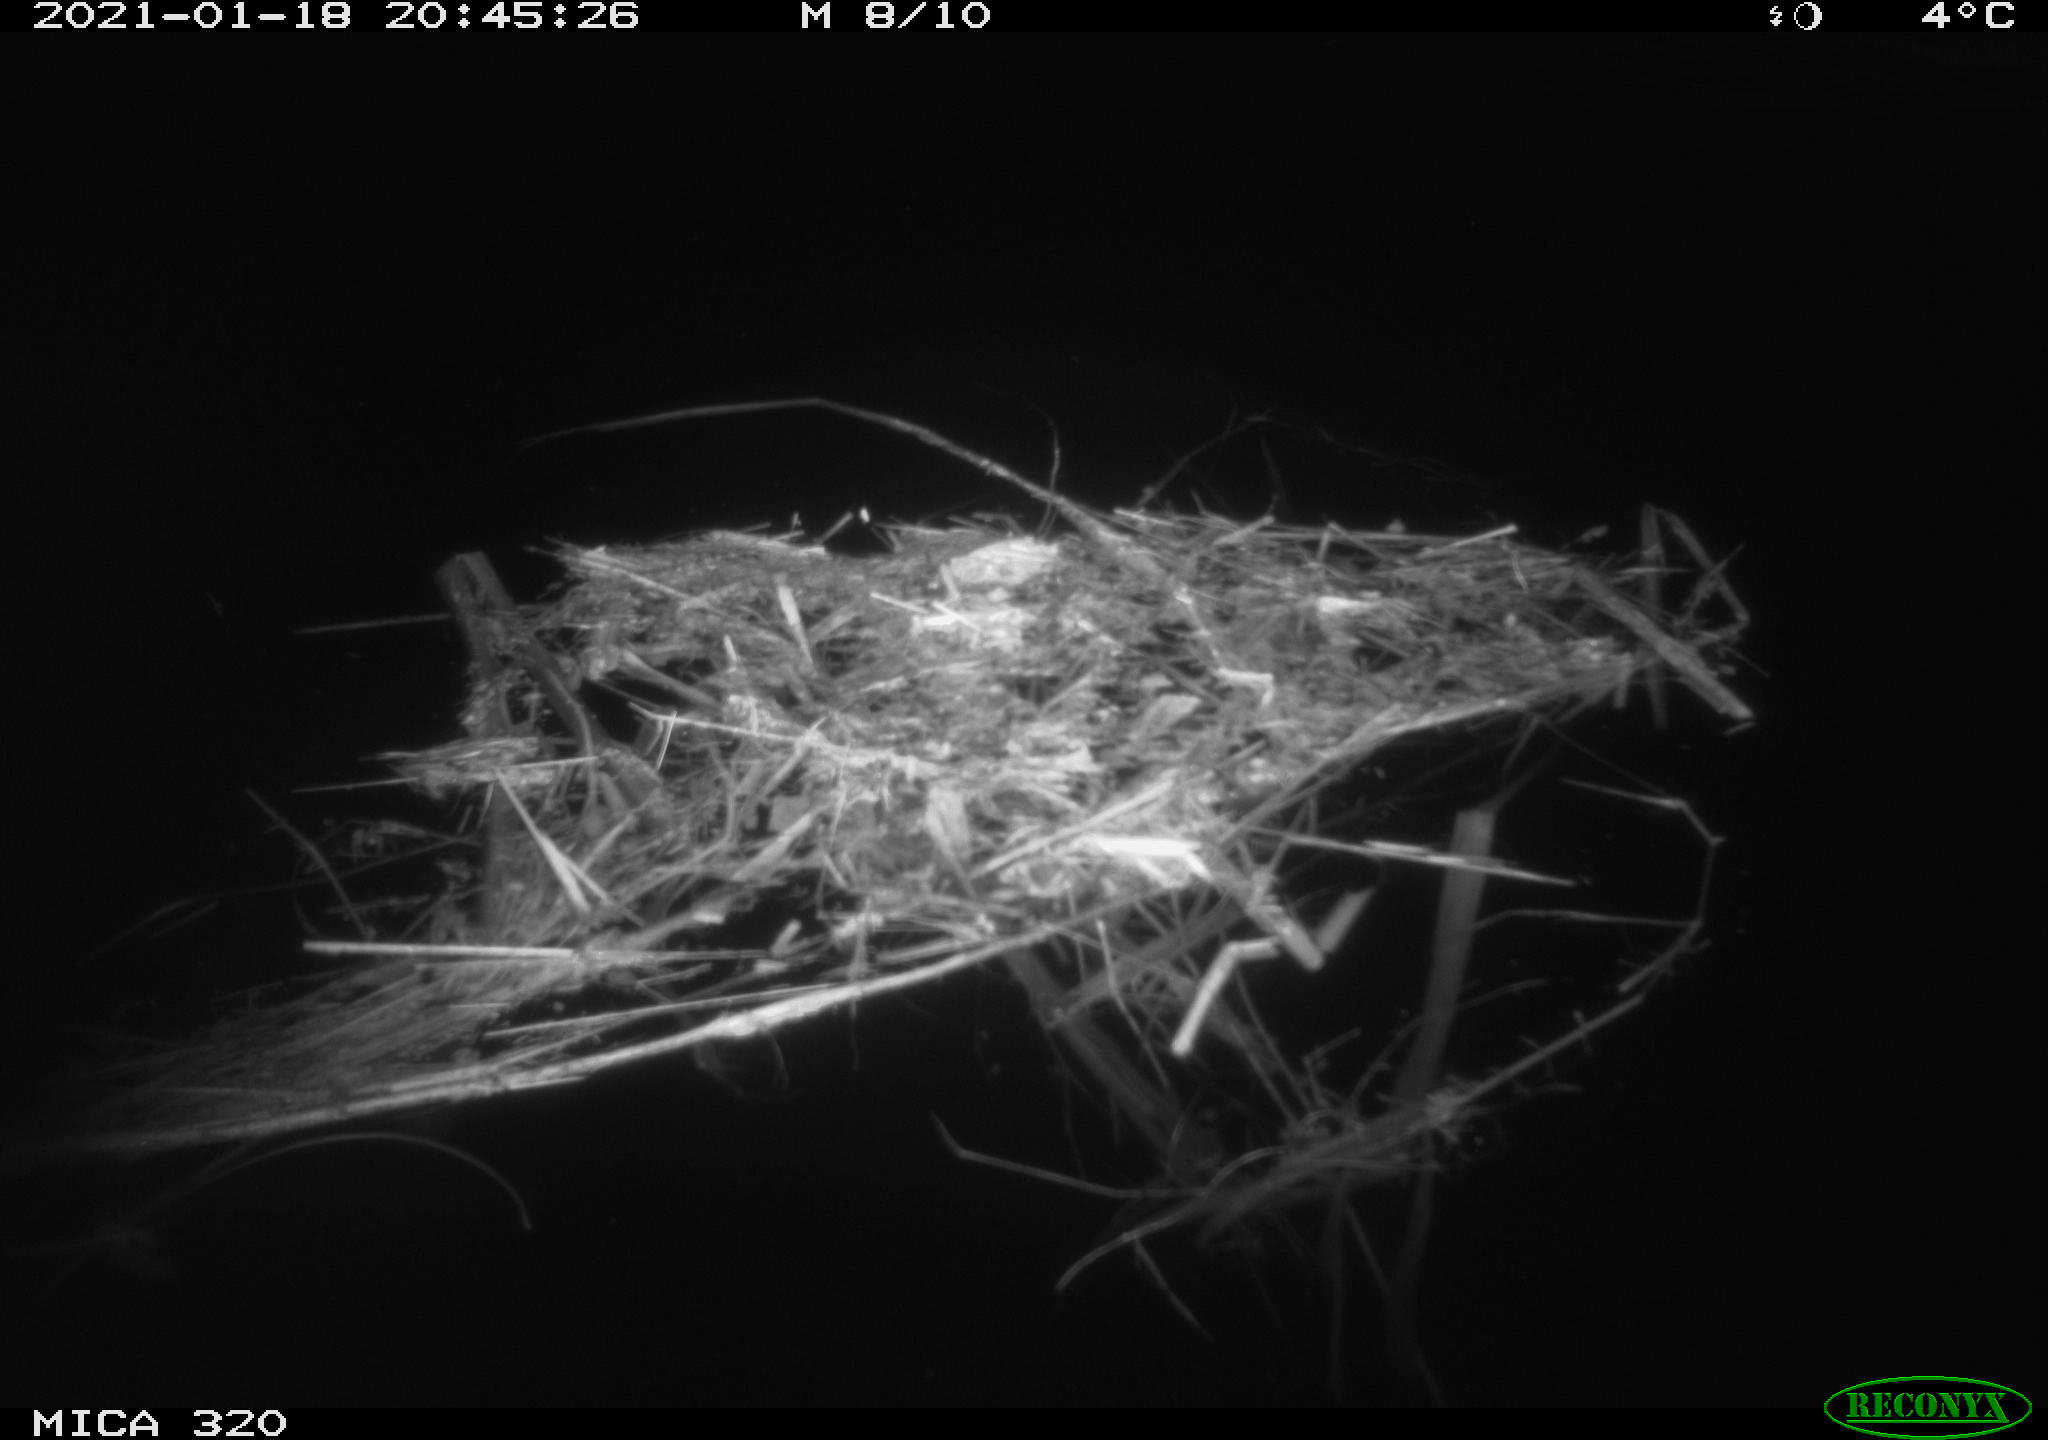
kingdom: Animalia
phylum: Chordata
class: Mammalia
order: Rodentia
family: Muridae
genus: Rattus
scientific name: Rattus norvegicus
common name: Brown rat
